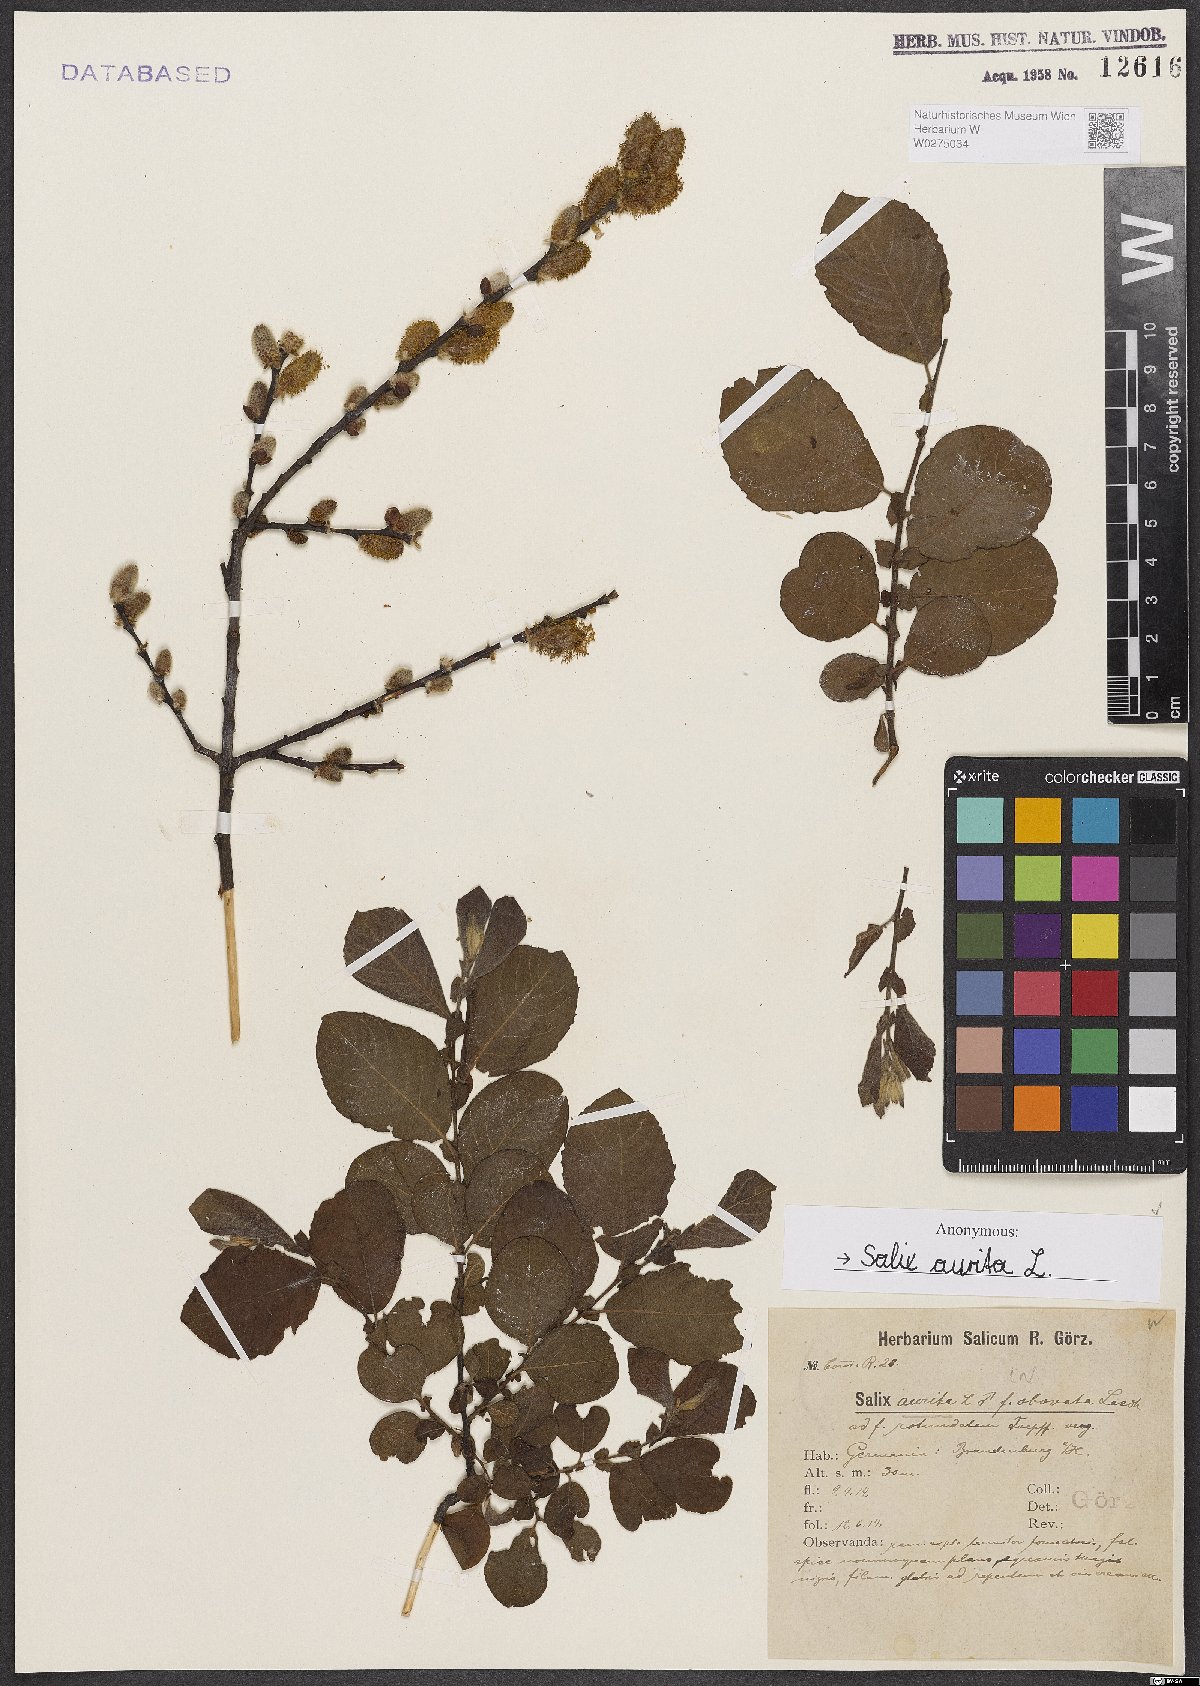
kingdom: Plantae
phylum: Tracheophyta
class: Magnoliopsida
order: Malpighiales
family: Salicaceae
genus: Salix
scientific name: Salix aurita
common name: Eared willow
